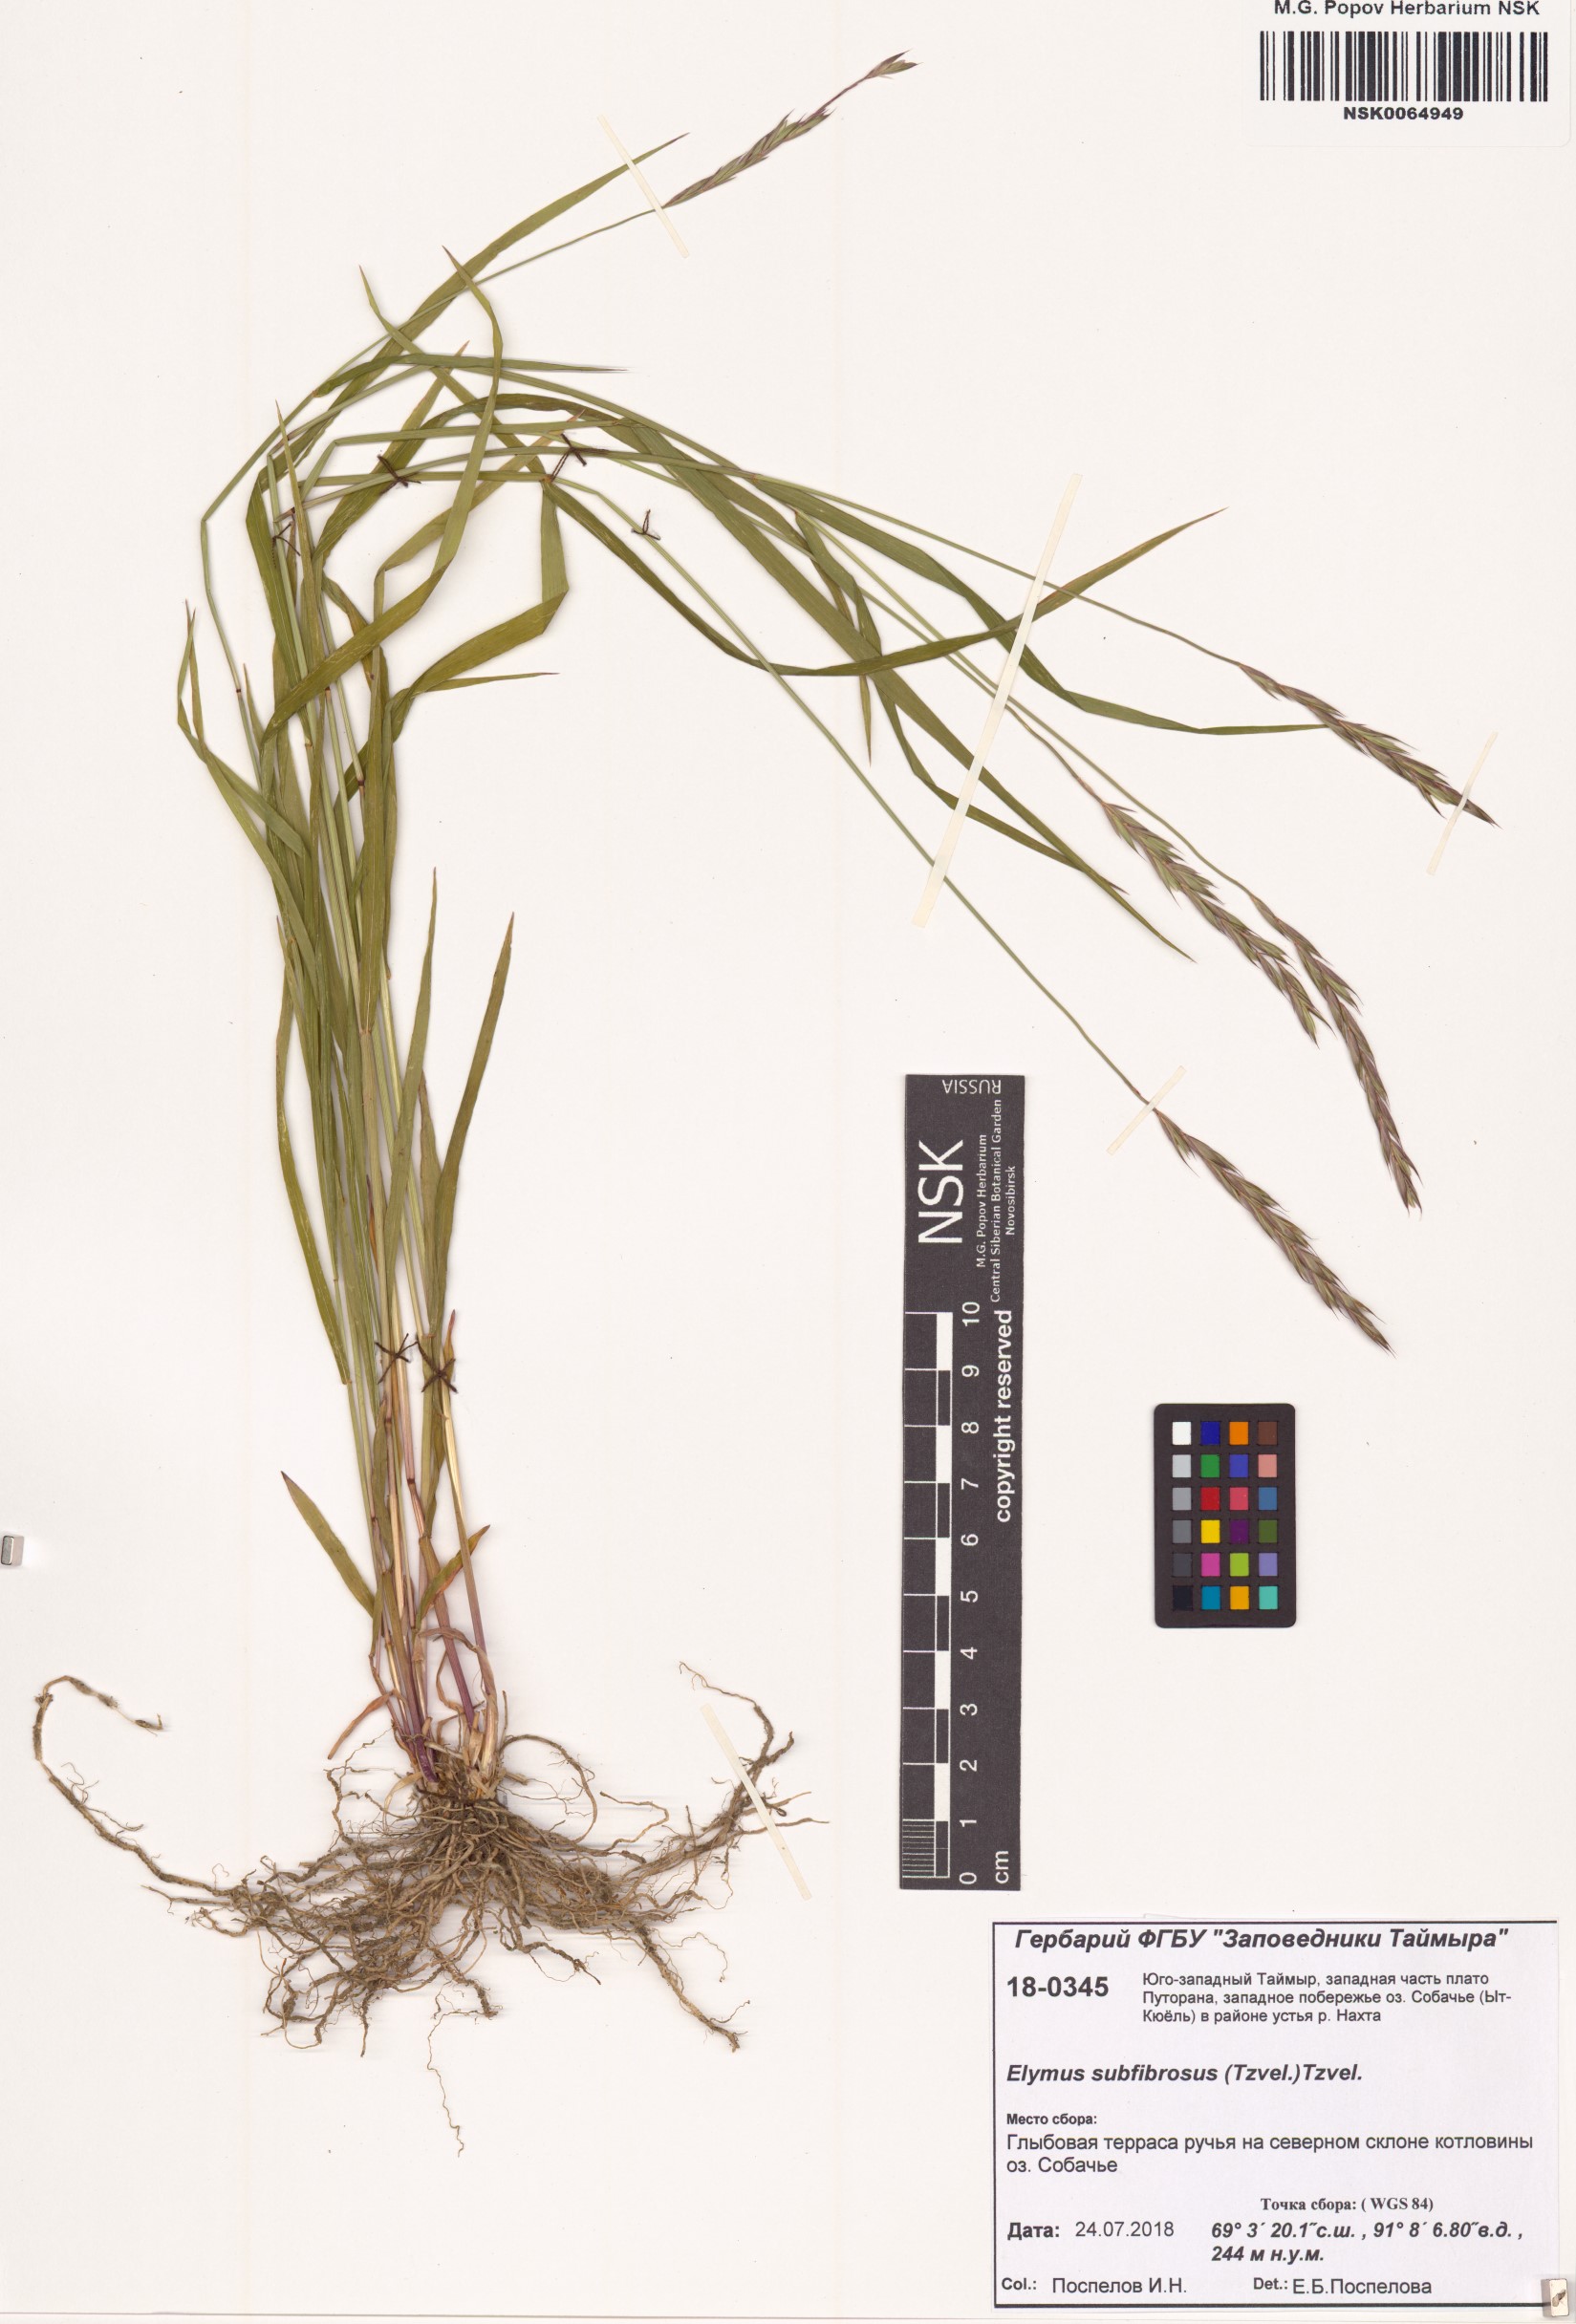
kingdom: Plantae
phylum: Tracheophyta
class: Liliopsida
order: Poales
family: Poaceae
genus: Elymus
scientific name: Elymus fibrosus
